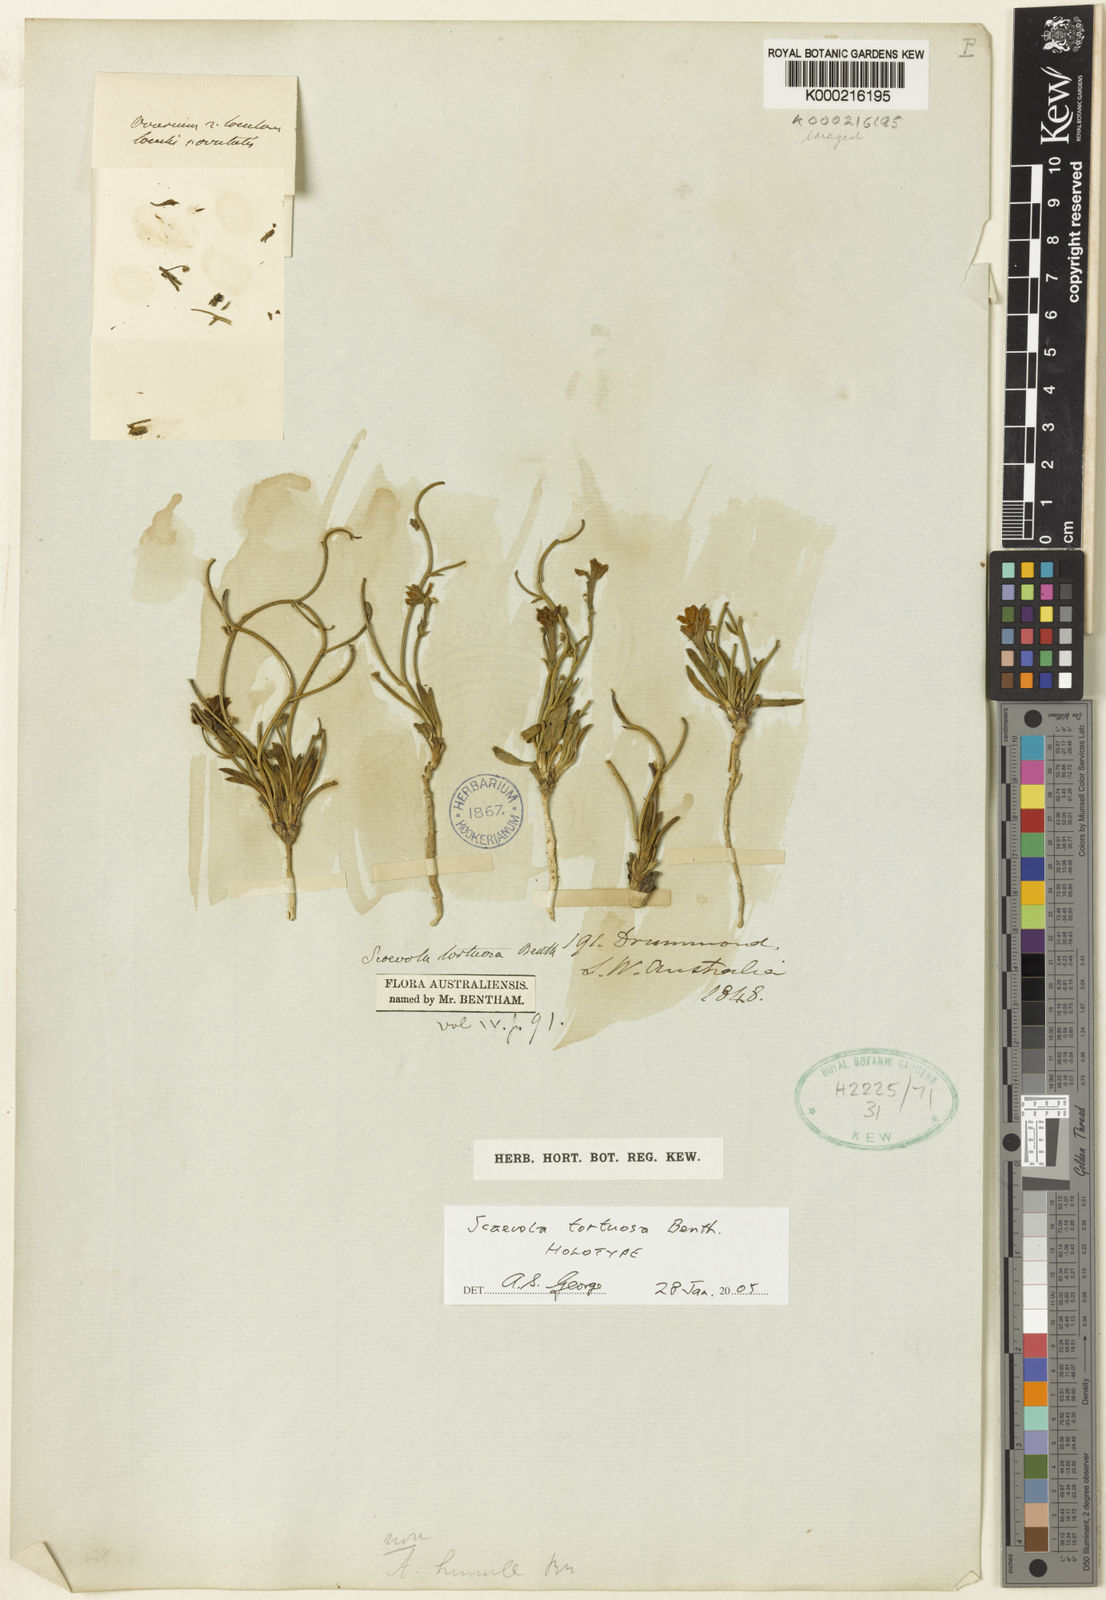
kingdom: Plantae
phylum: Tracheophyta
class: Magnoliopsida
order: Asterales
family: Goodeniaceae
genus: Scaevola
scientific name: Scaevola tortuosa
